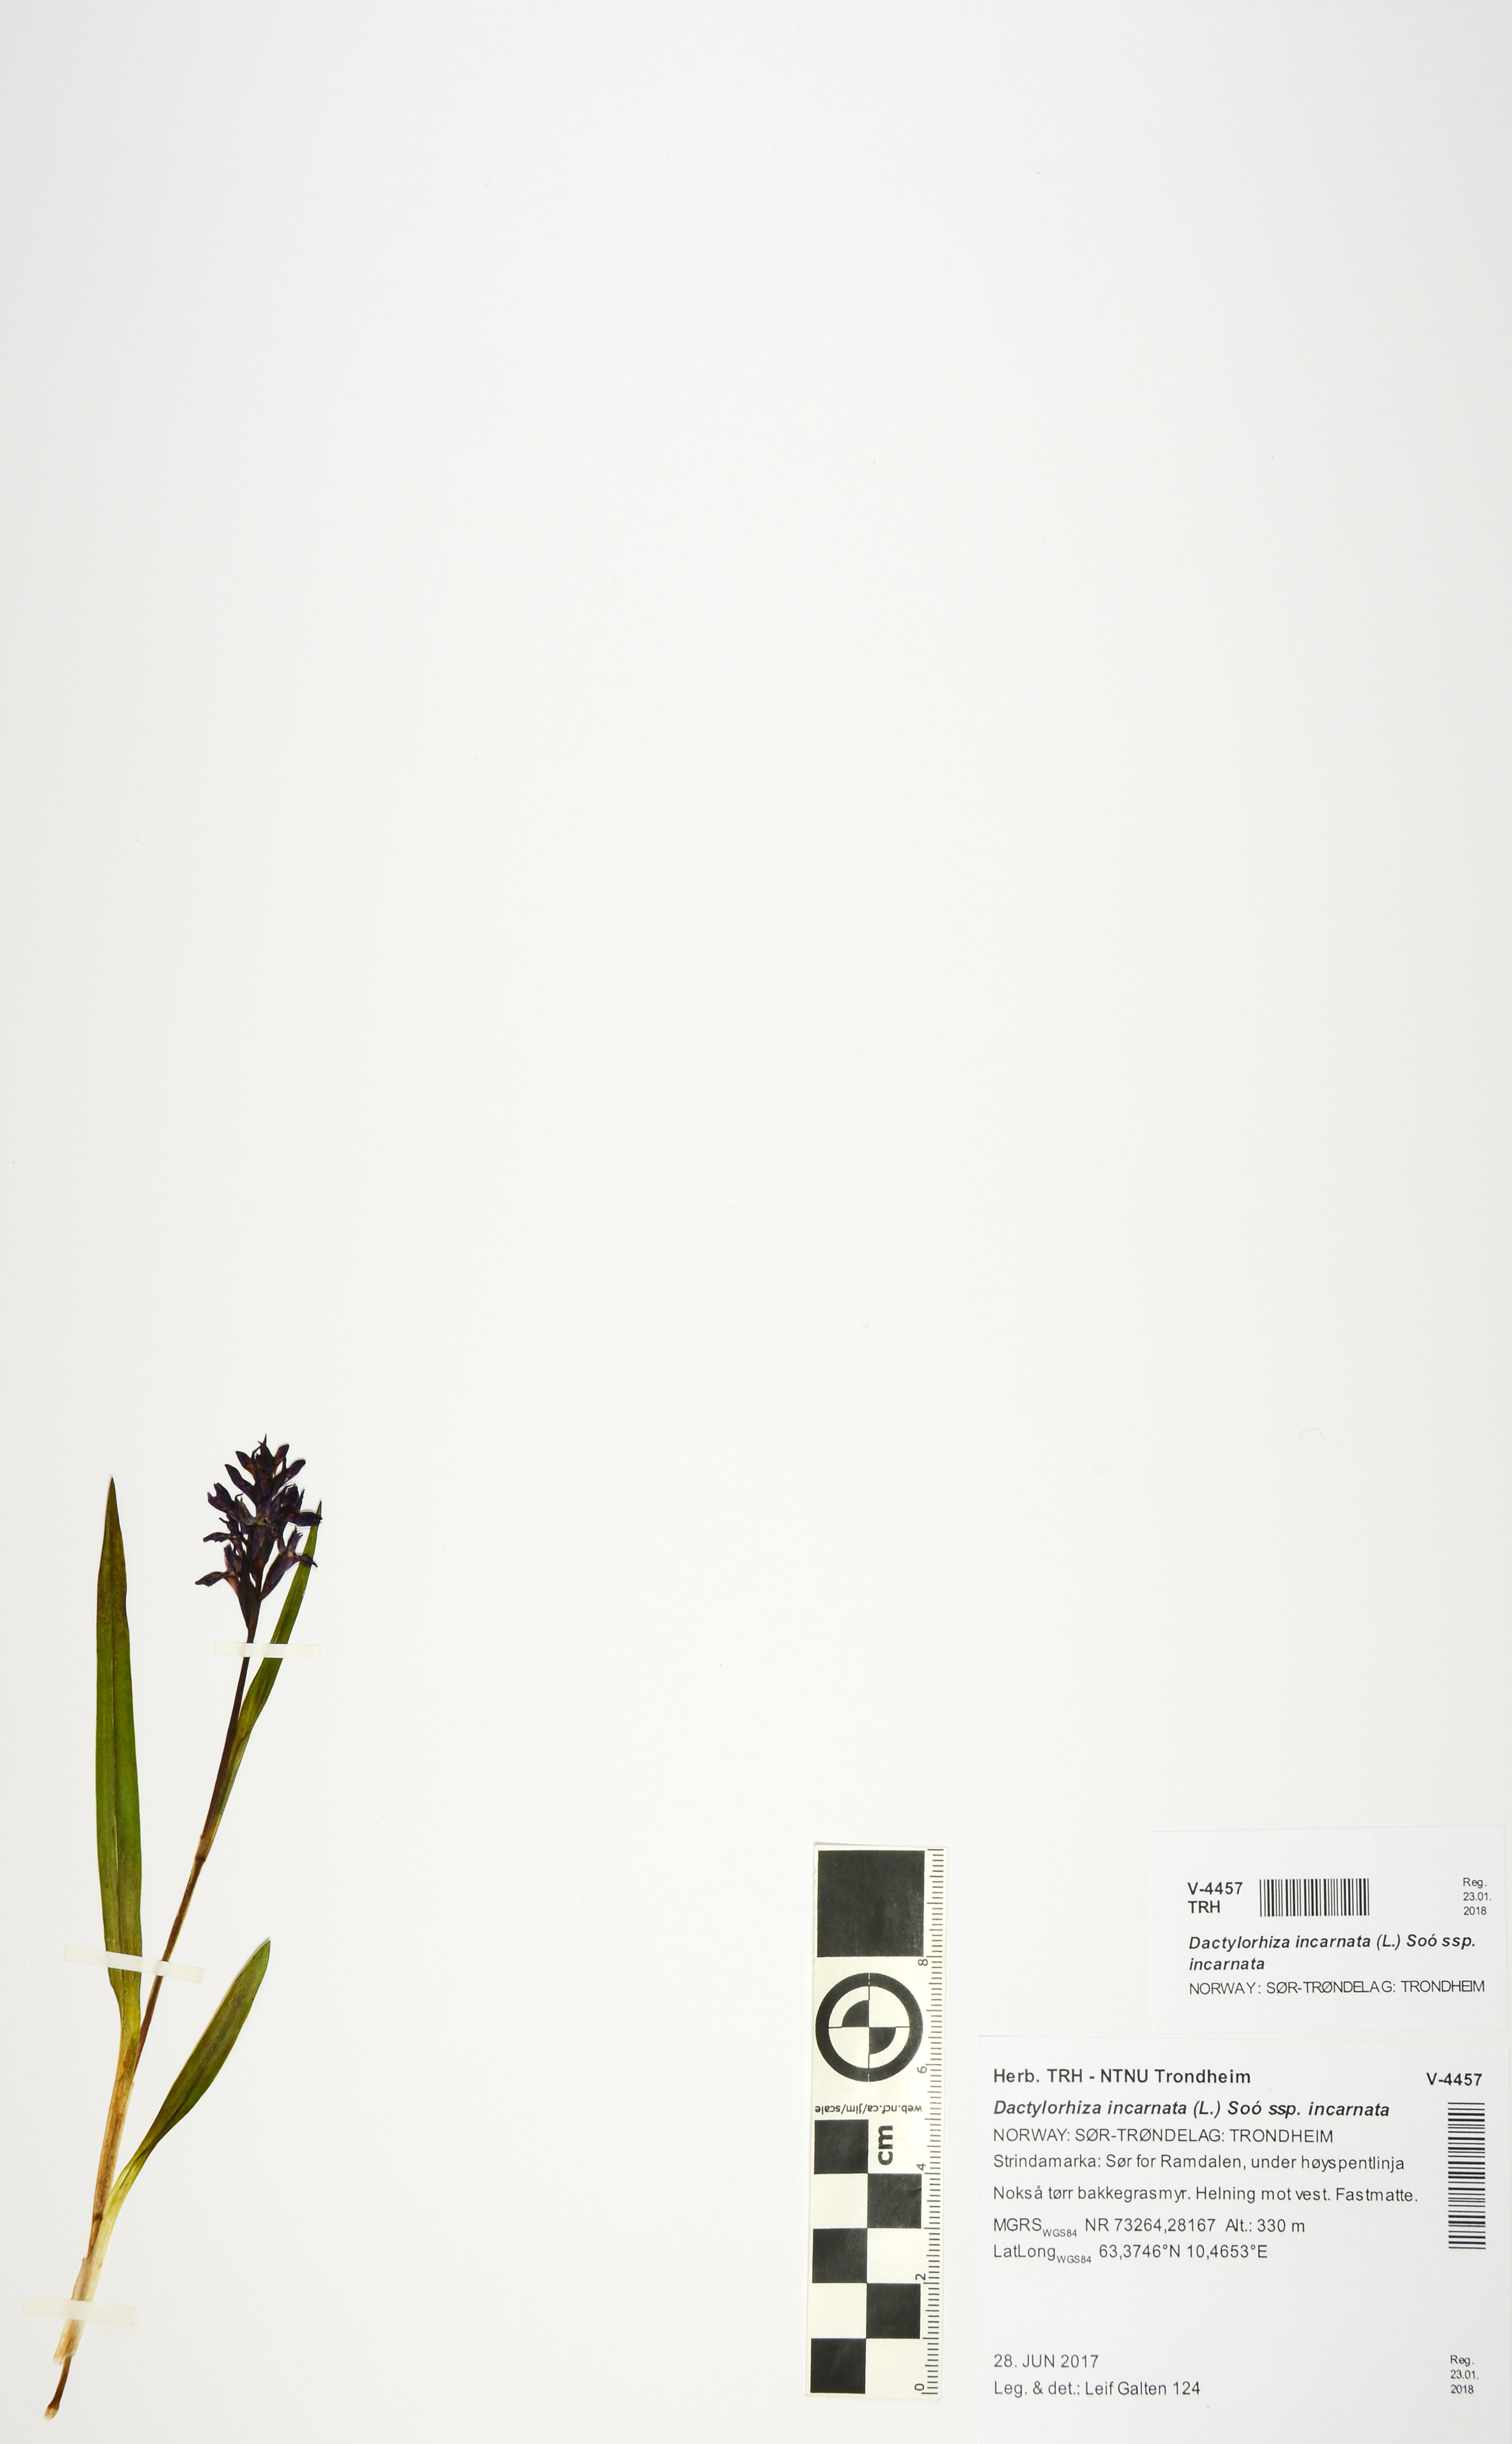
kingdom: Plantae
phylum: Tracheophyta
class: Liliopsida
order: Asparagales
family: Orchidaceae
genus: Dactylorhiza
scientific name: Dactylorhiza incarnata
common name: Early marsh-orchid
